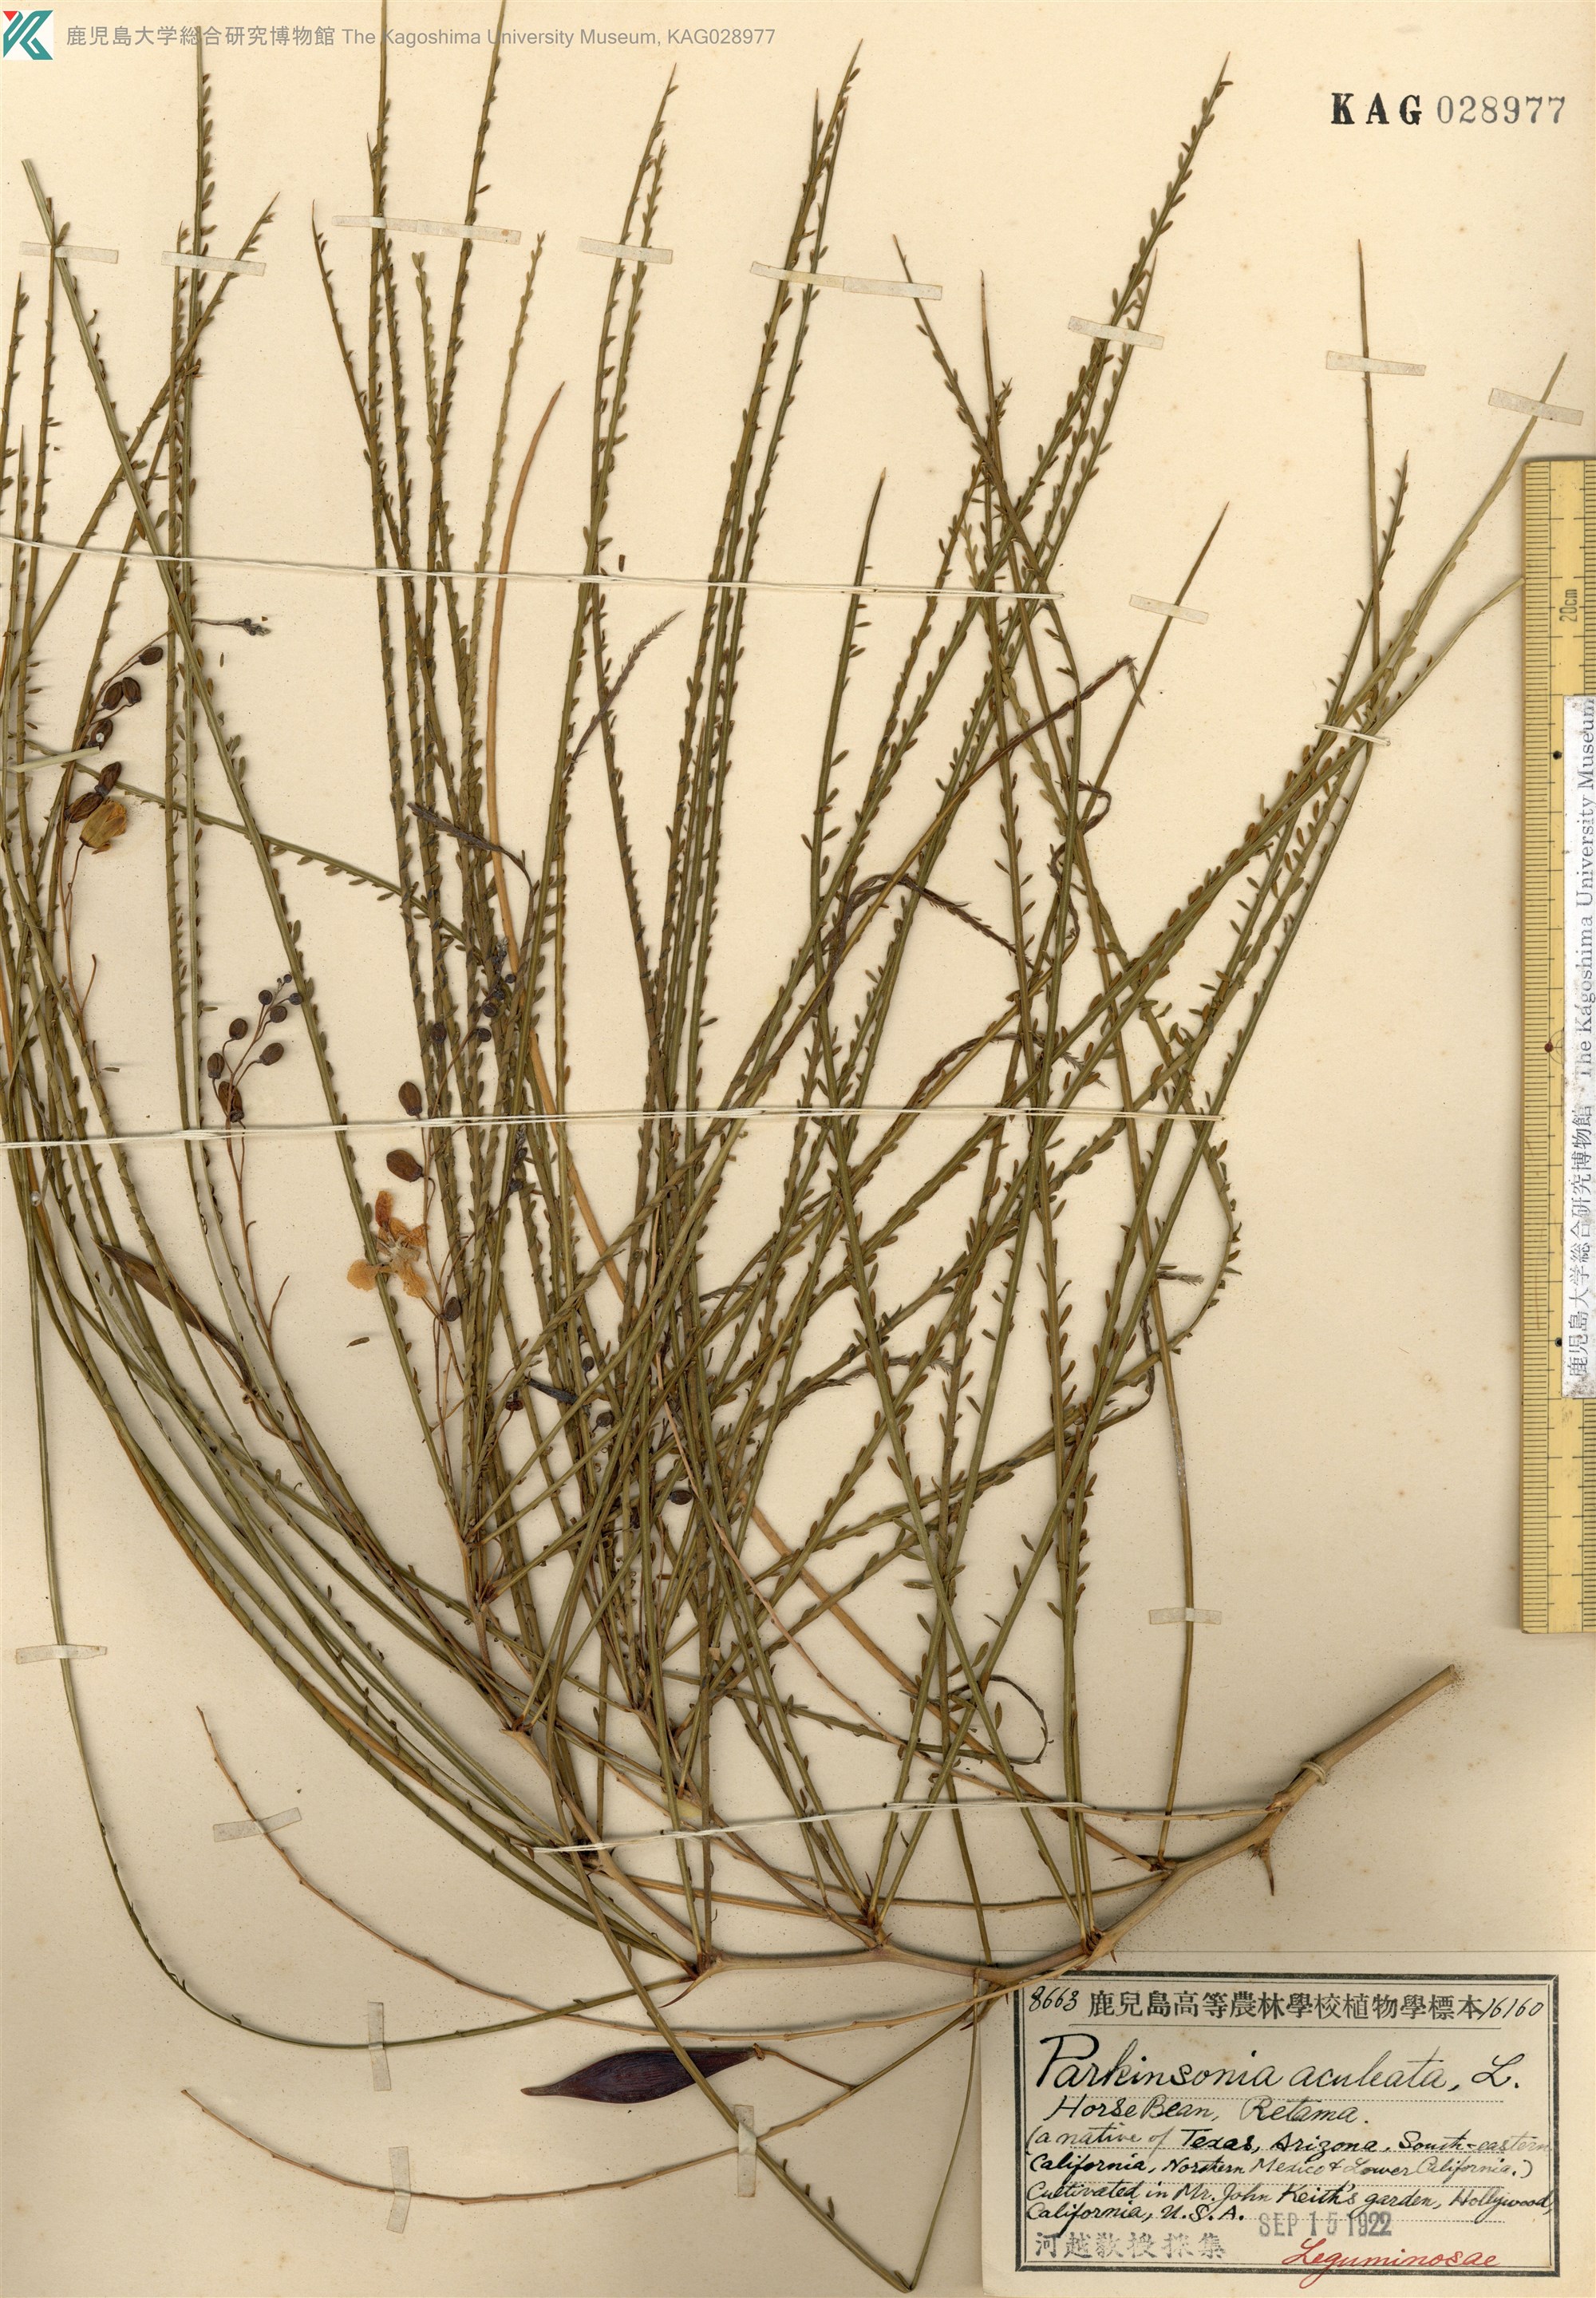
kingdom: Plantae
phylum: Tracheophyta
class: Magnoliopsida
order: Fabales
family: Fabaceae
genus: Parkinsonia
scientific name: Parkinsonia aculeata
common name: Jerusalem thorn
